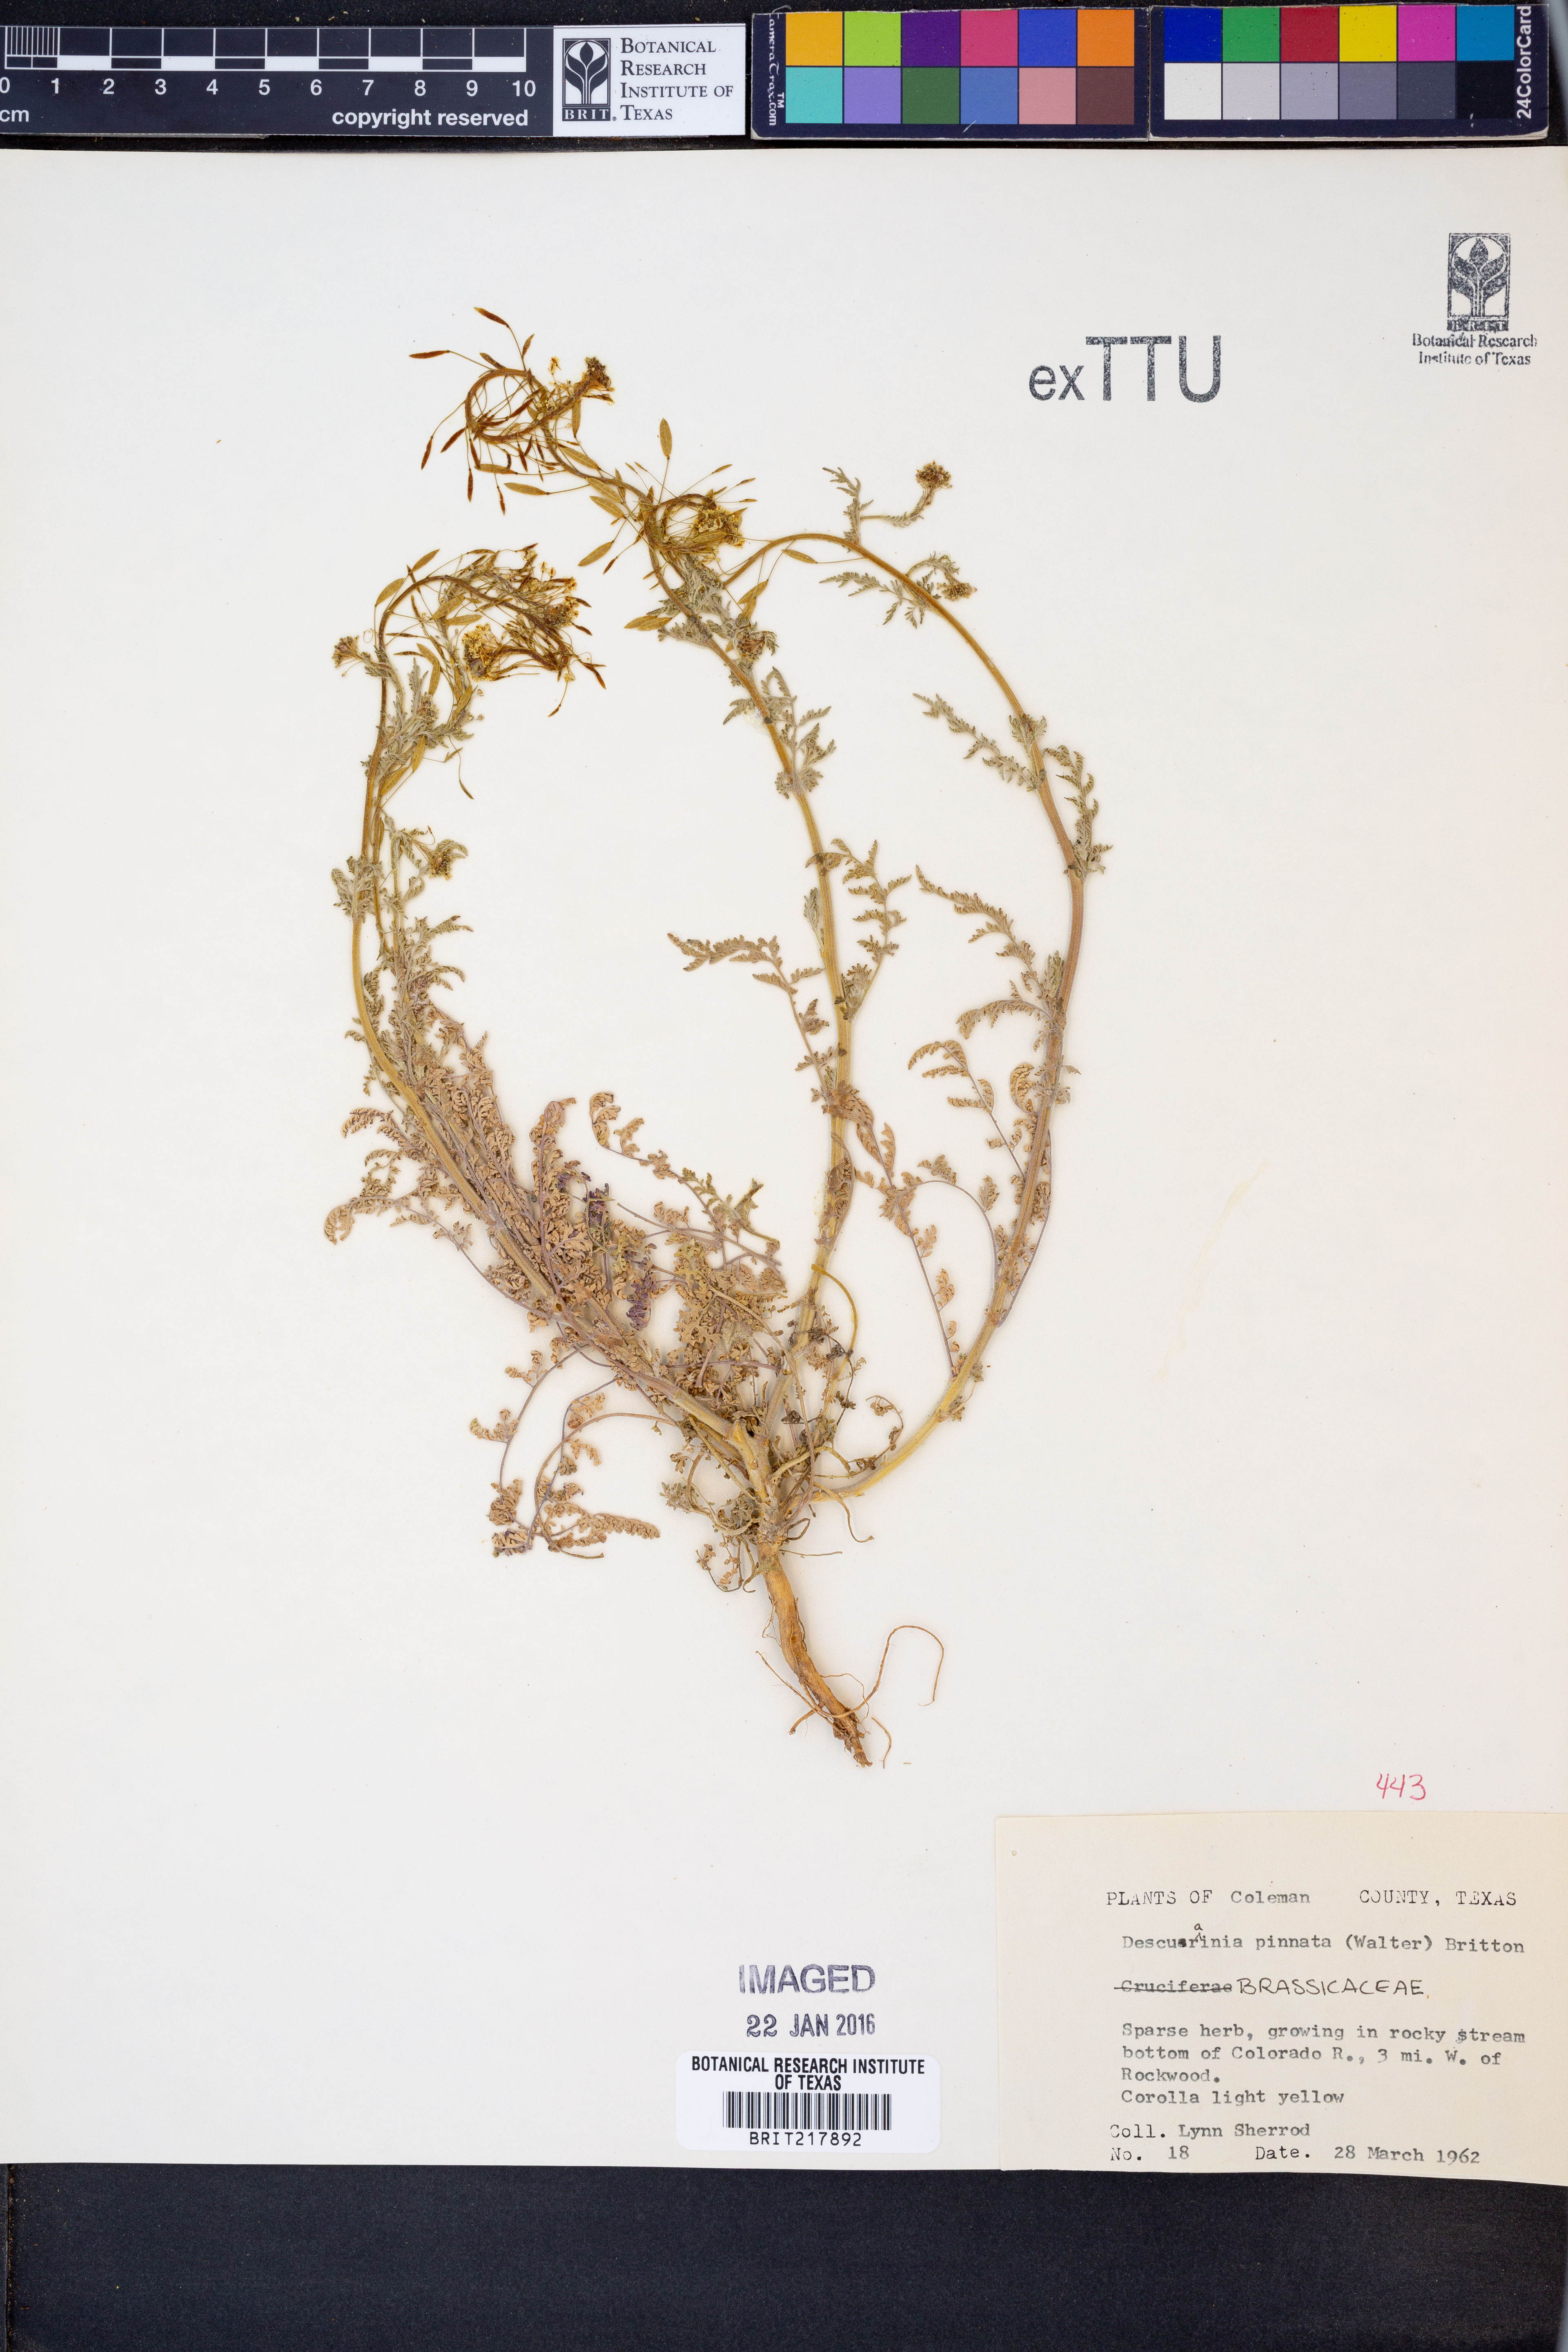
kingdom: Plantae
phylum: Tracheophyta
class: Magnoliopsida
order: Brassicales
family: Brassicaceae
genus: Descurainia
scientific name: Descurainia pinnata
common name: Western tansy mustard
